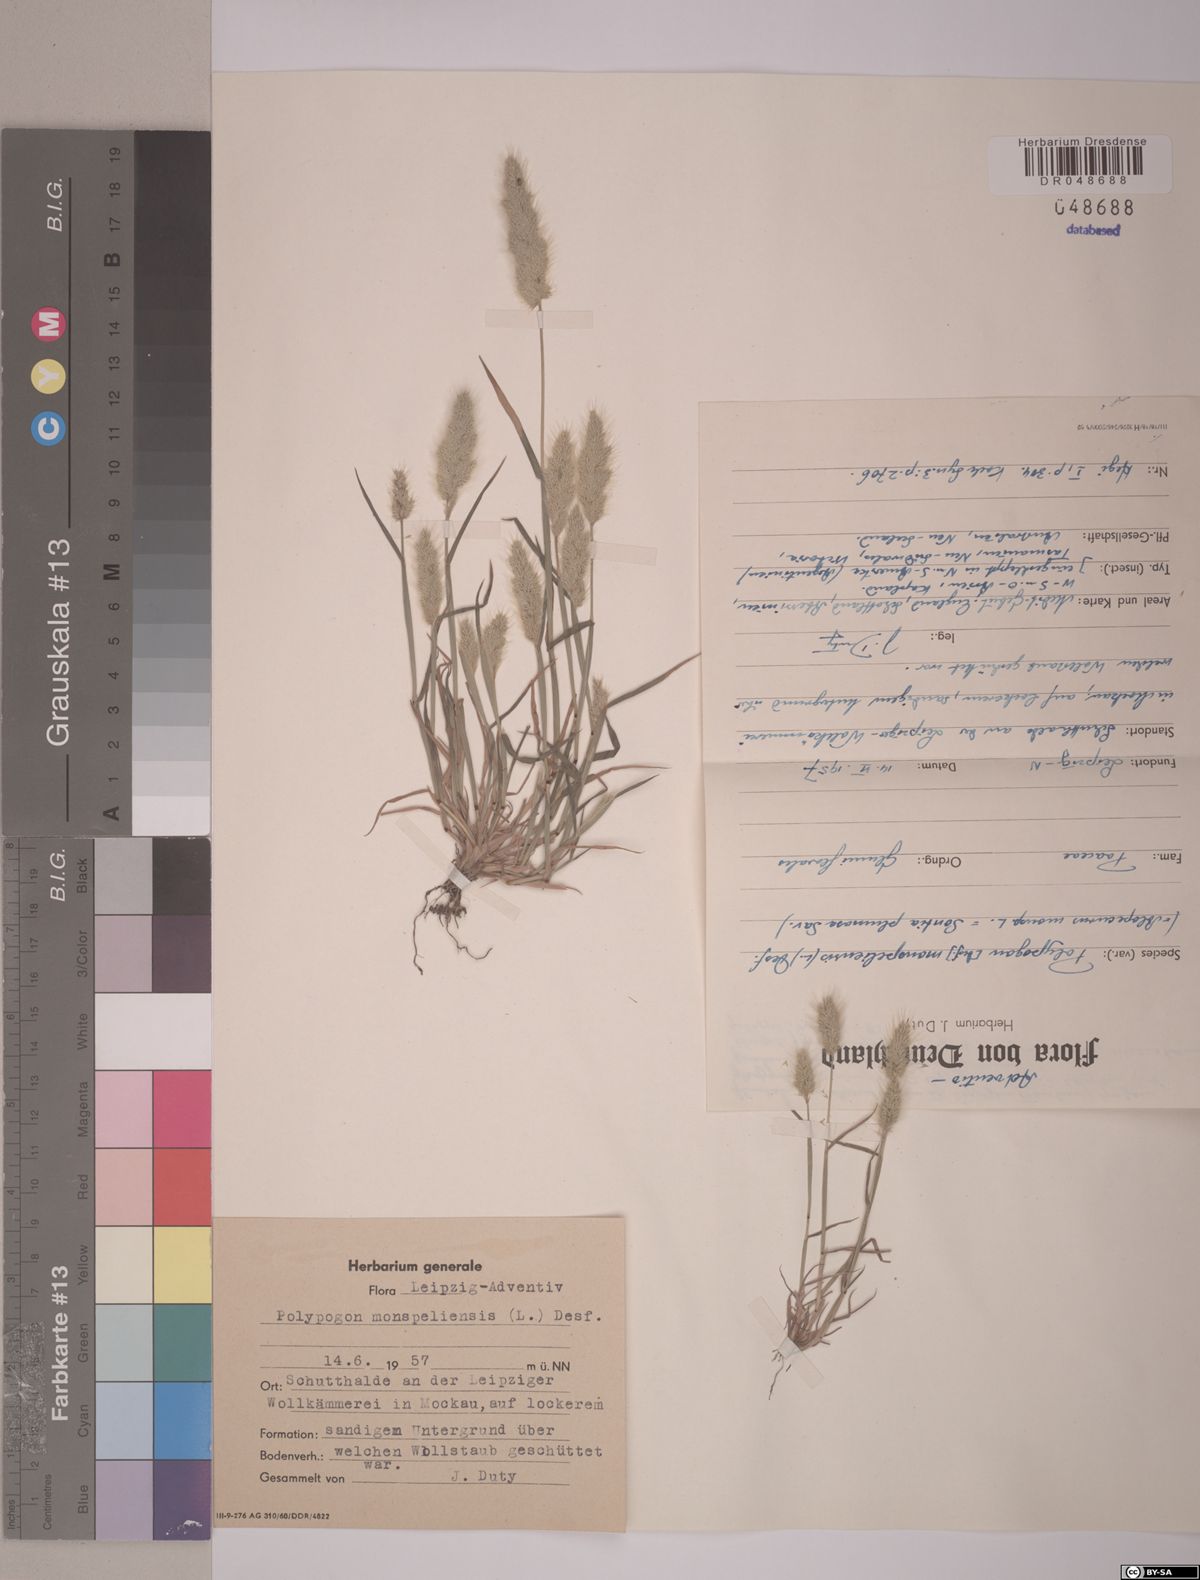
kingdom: Plantae
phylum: Tracheophyta
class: Liliopsida
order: Poales
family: Poaceae
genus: Polypogon
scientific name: Polypogon monspeliensis
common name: Annual rabbitsfoot grass
